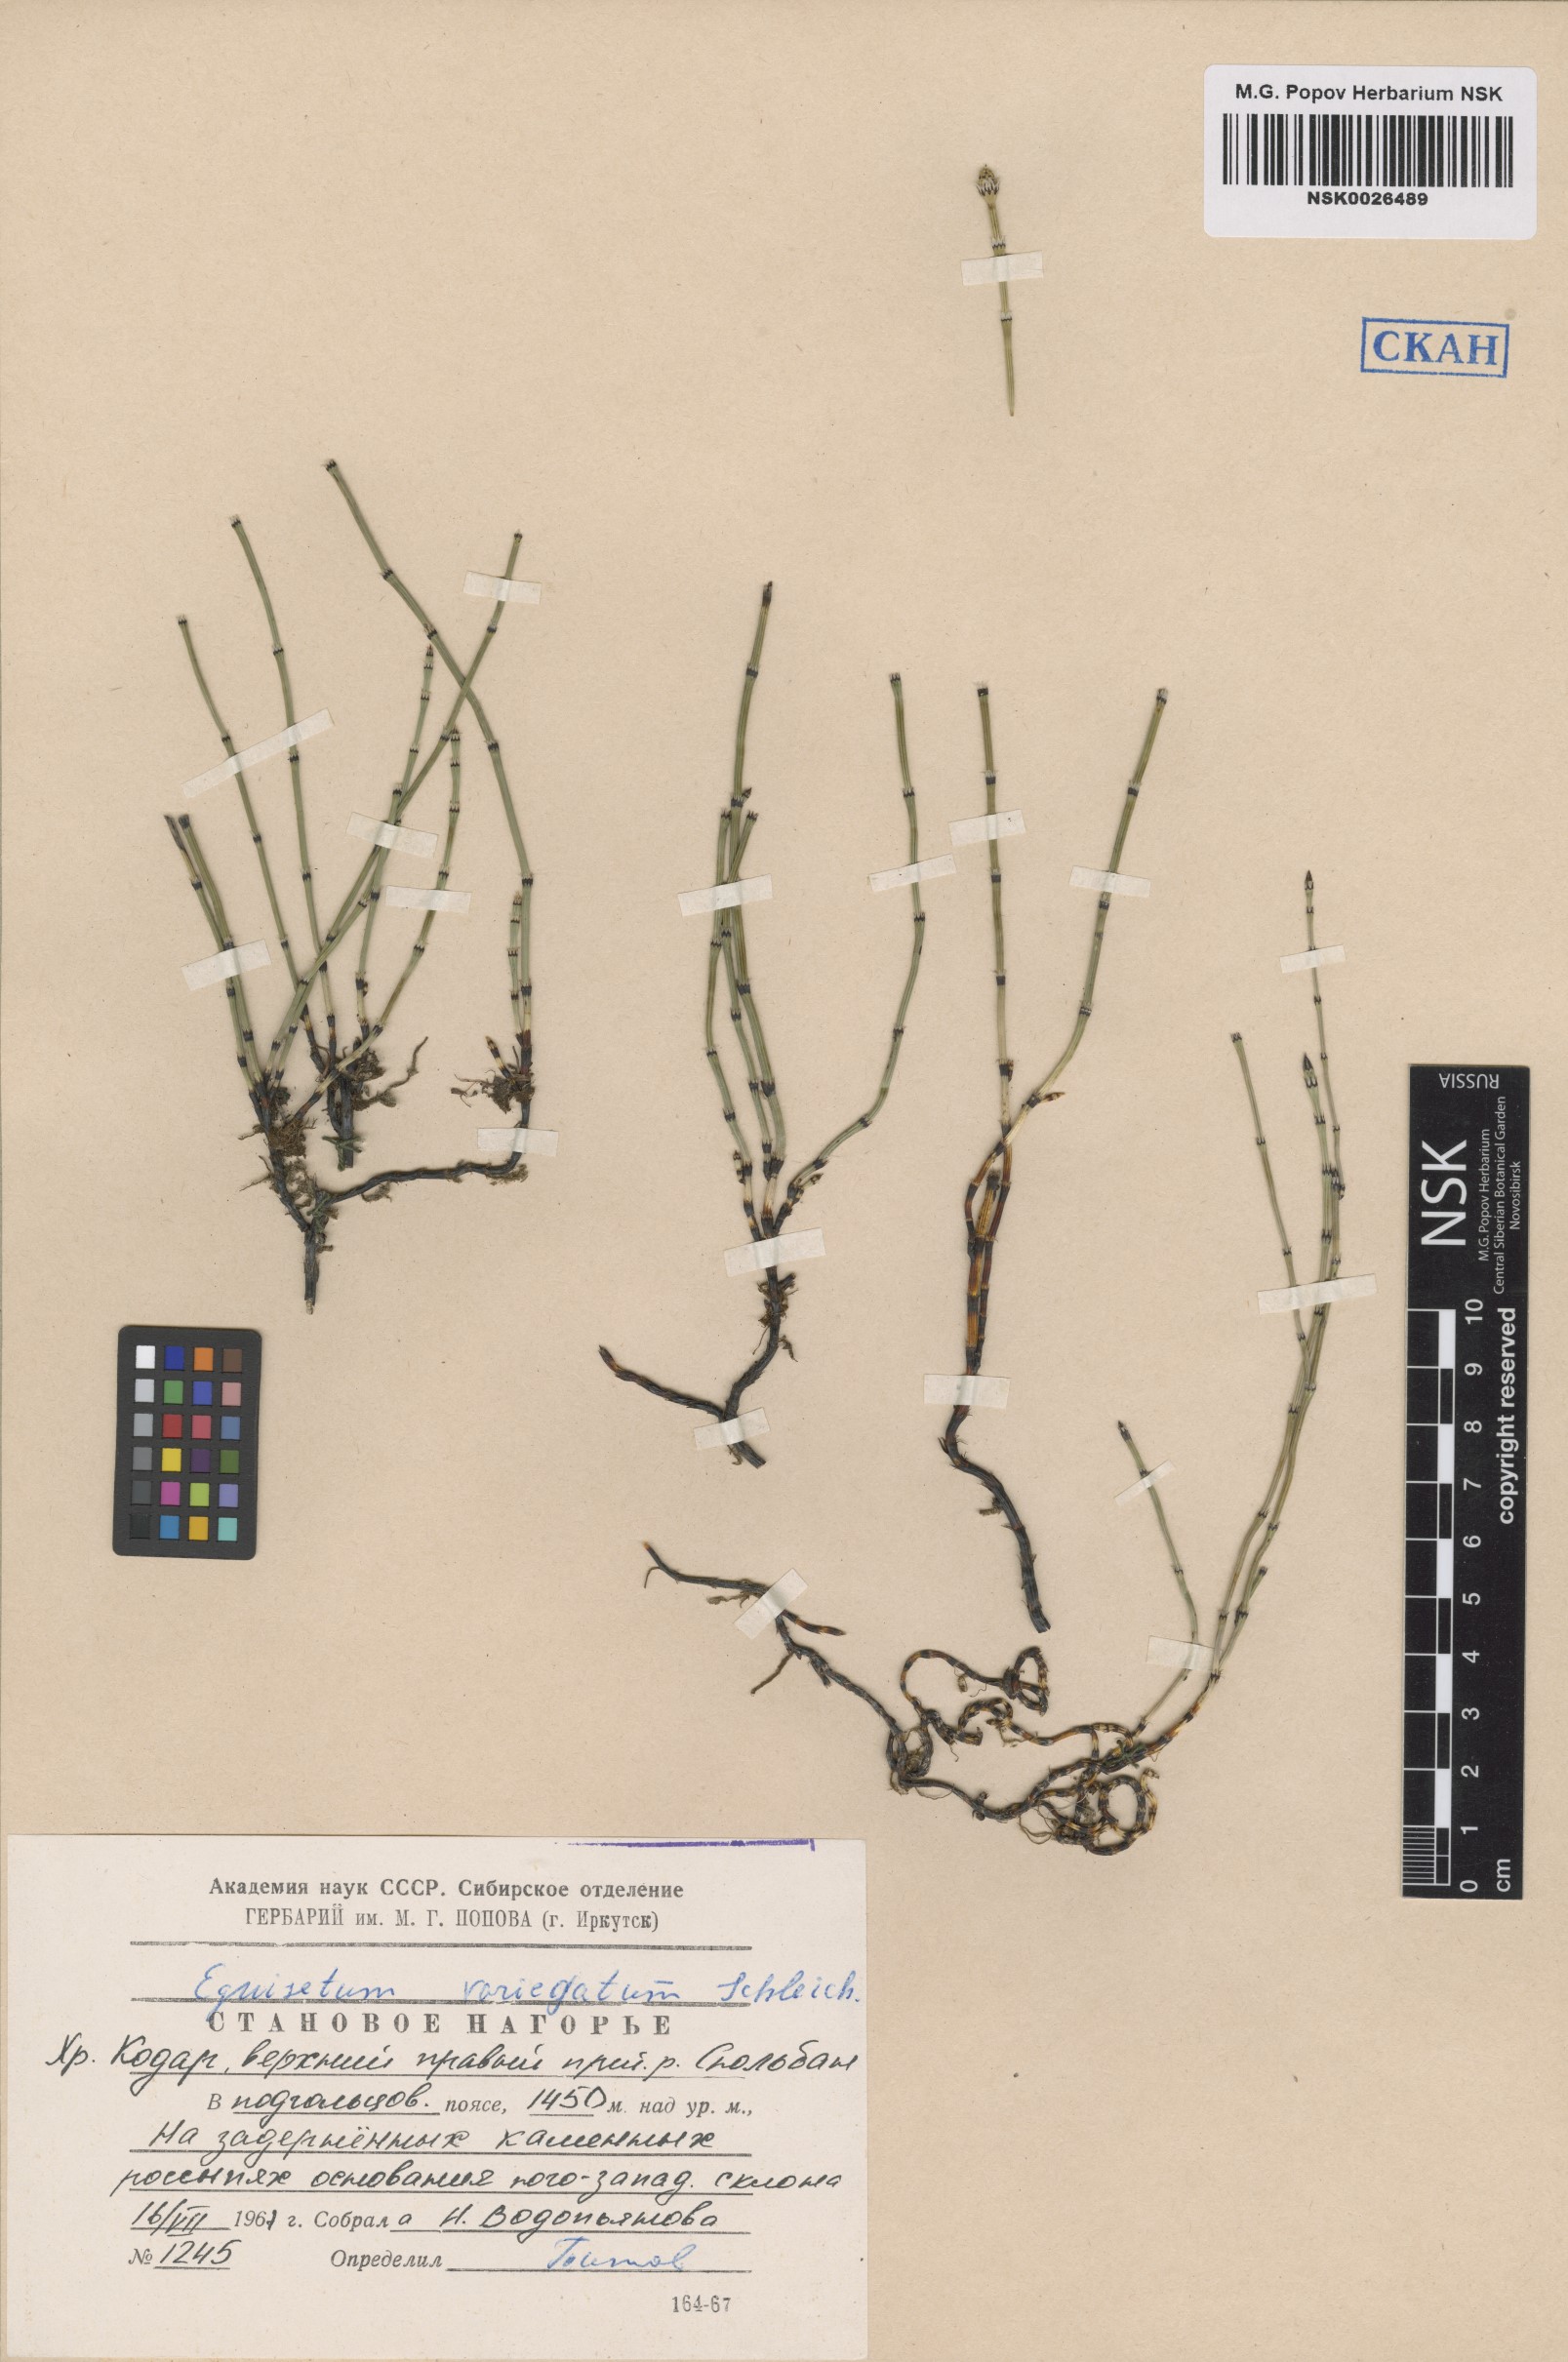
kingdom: Plantae
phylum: Tracheophyta
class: Polypodiopsida
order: Equisetales
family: Equisetaceae
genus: Equisetum
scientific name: Equisetum variegatum
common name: Variegated horsetail
